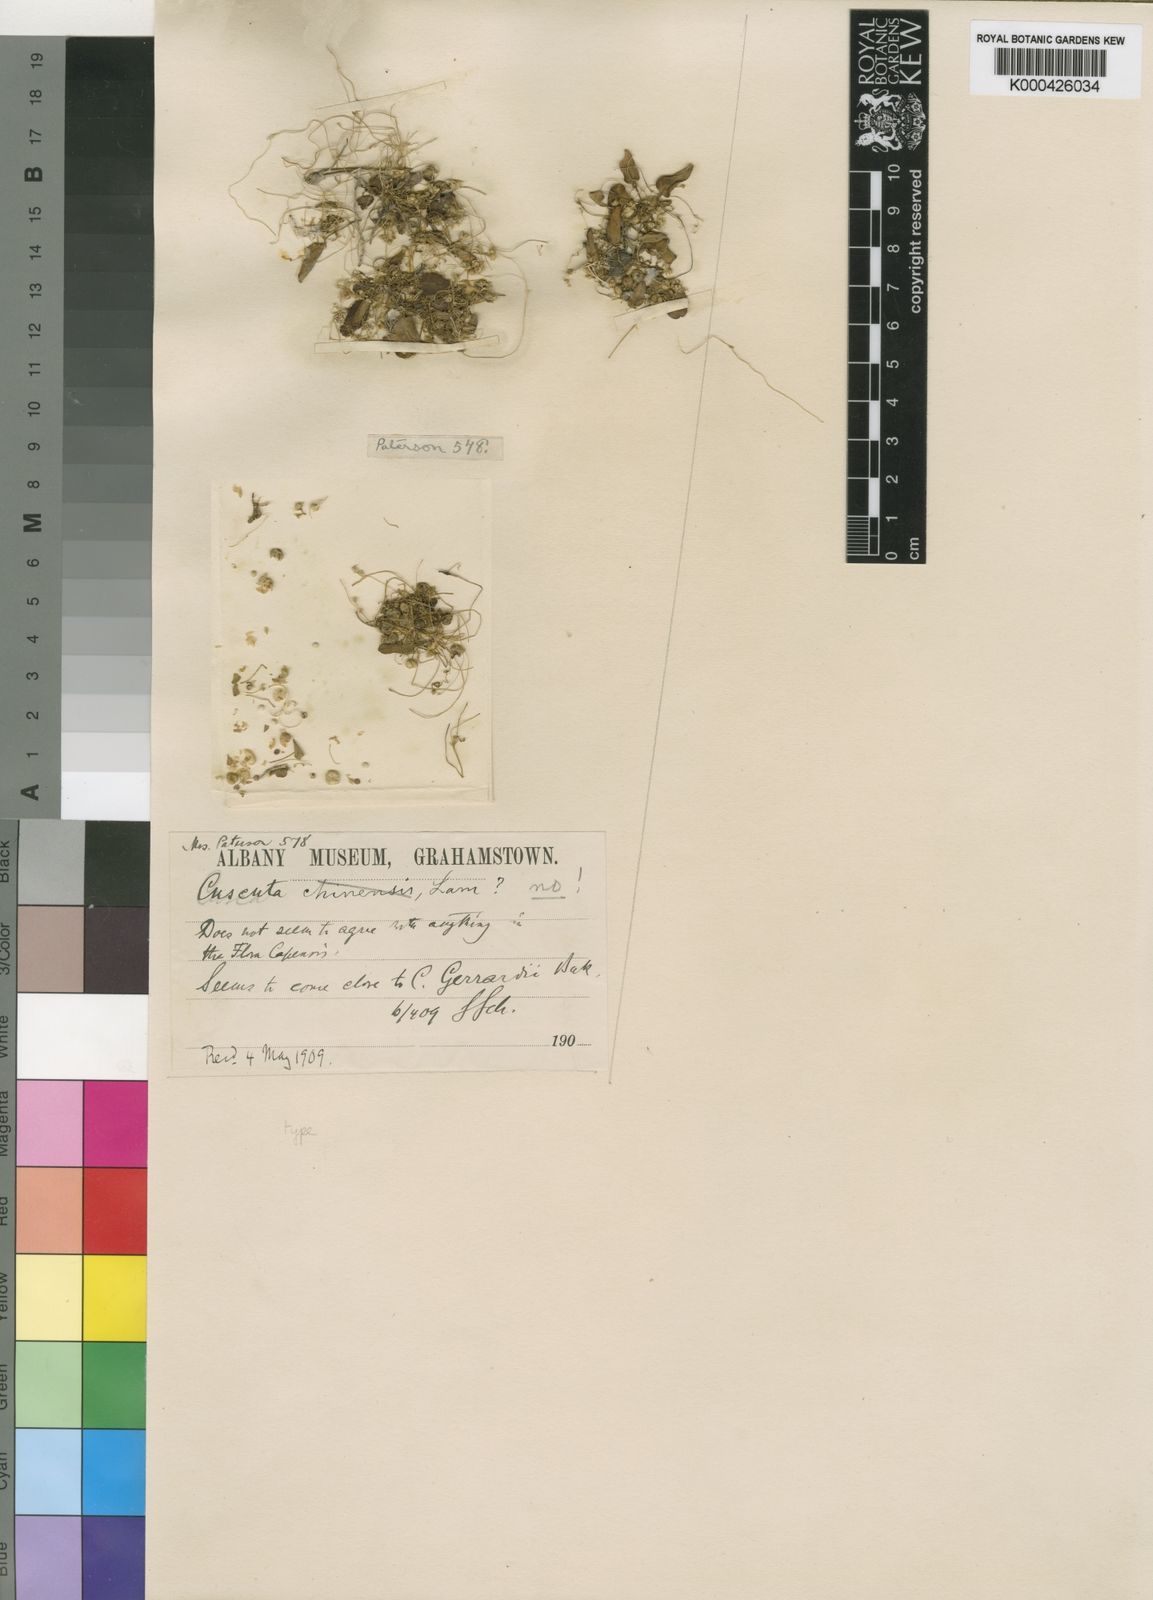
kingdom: Plantae
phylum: Tracheophyta
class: Magnoliopsida
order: Solanales
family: Convolvulaceae
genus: Cuscuta
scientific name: Cuscuta bifurcata
